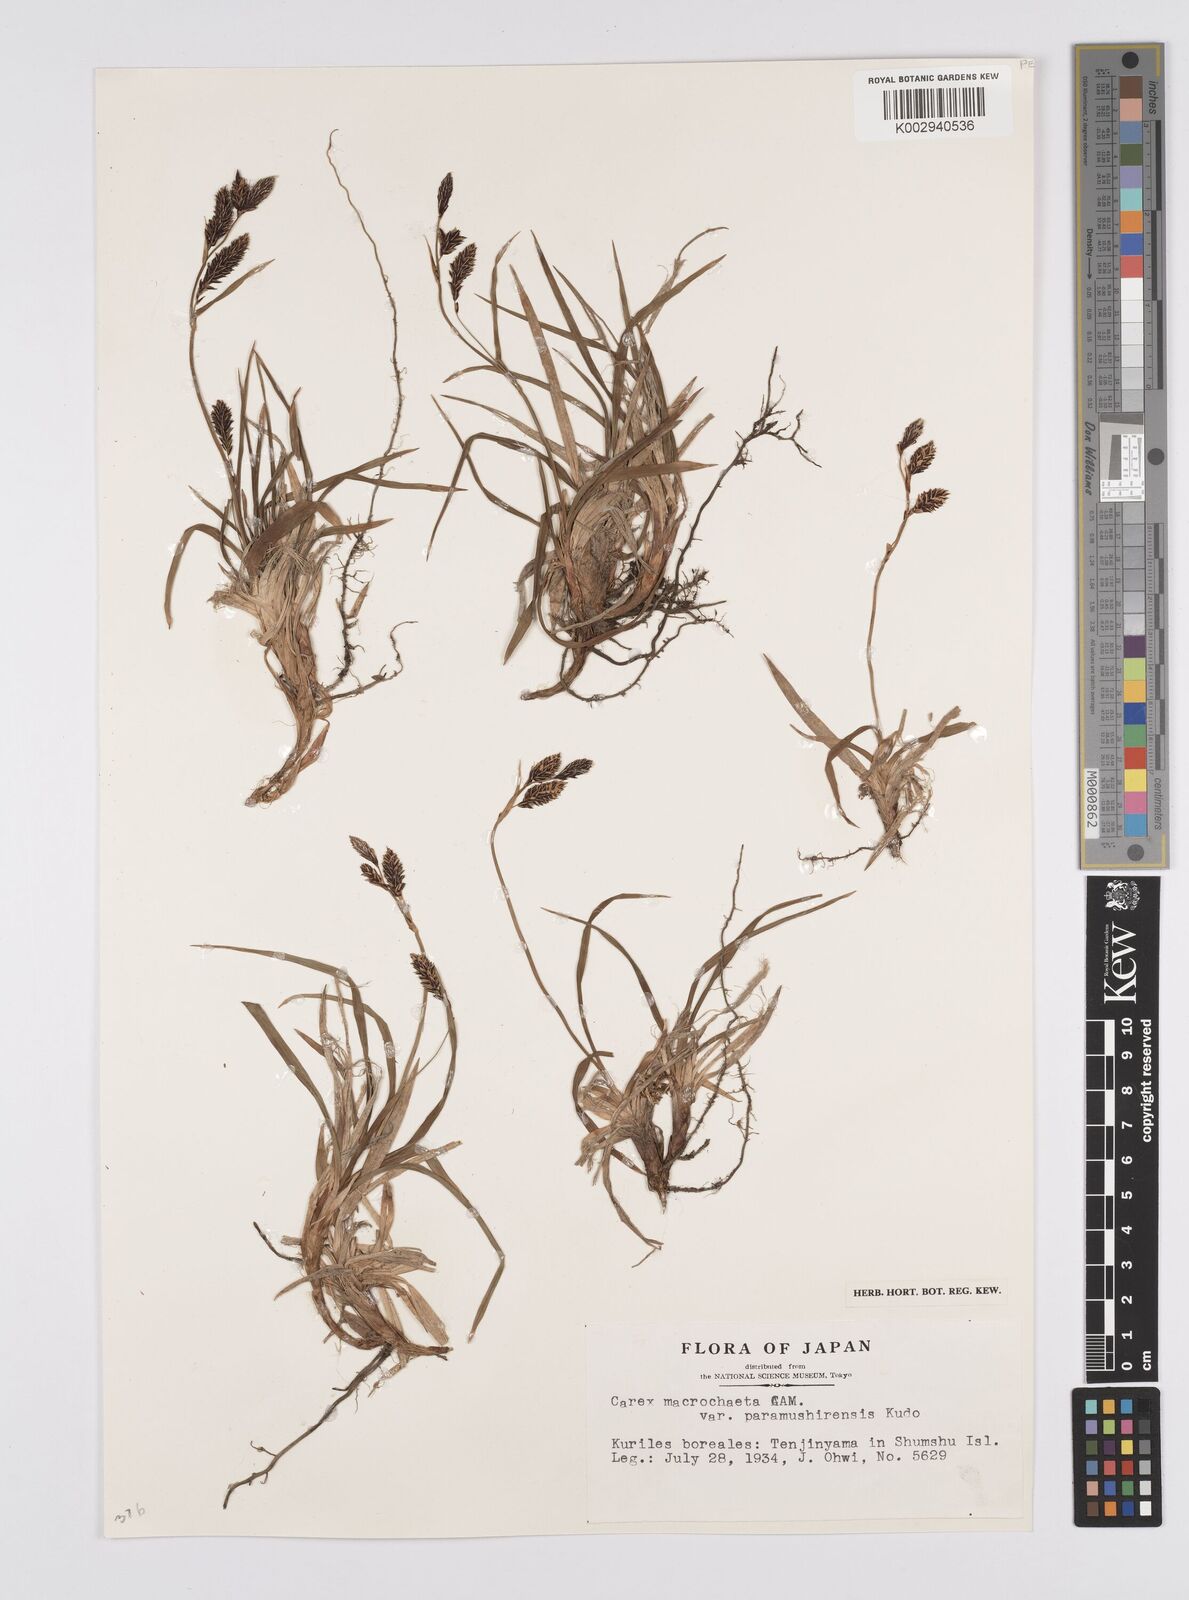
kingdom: Plantae
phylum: Tracheophyta
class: Liliopsida
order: Poales
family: Cyperaceae
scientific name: Cyperaceae
